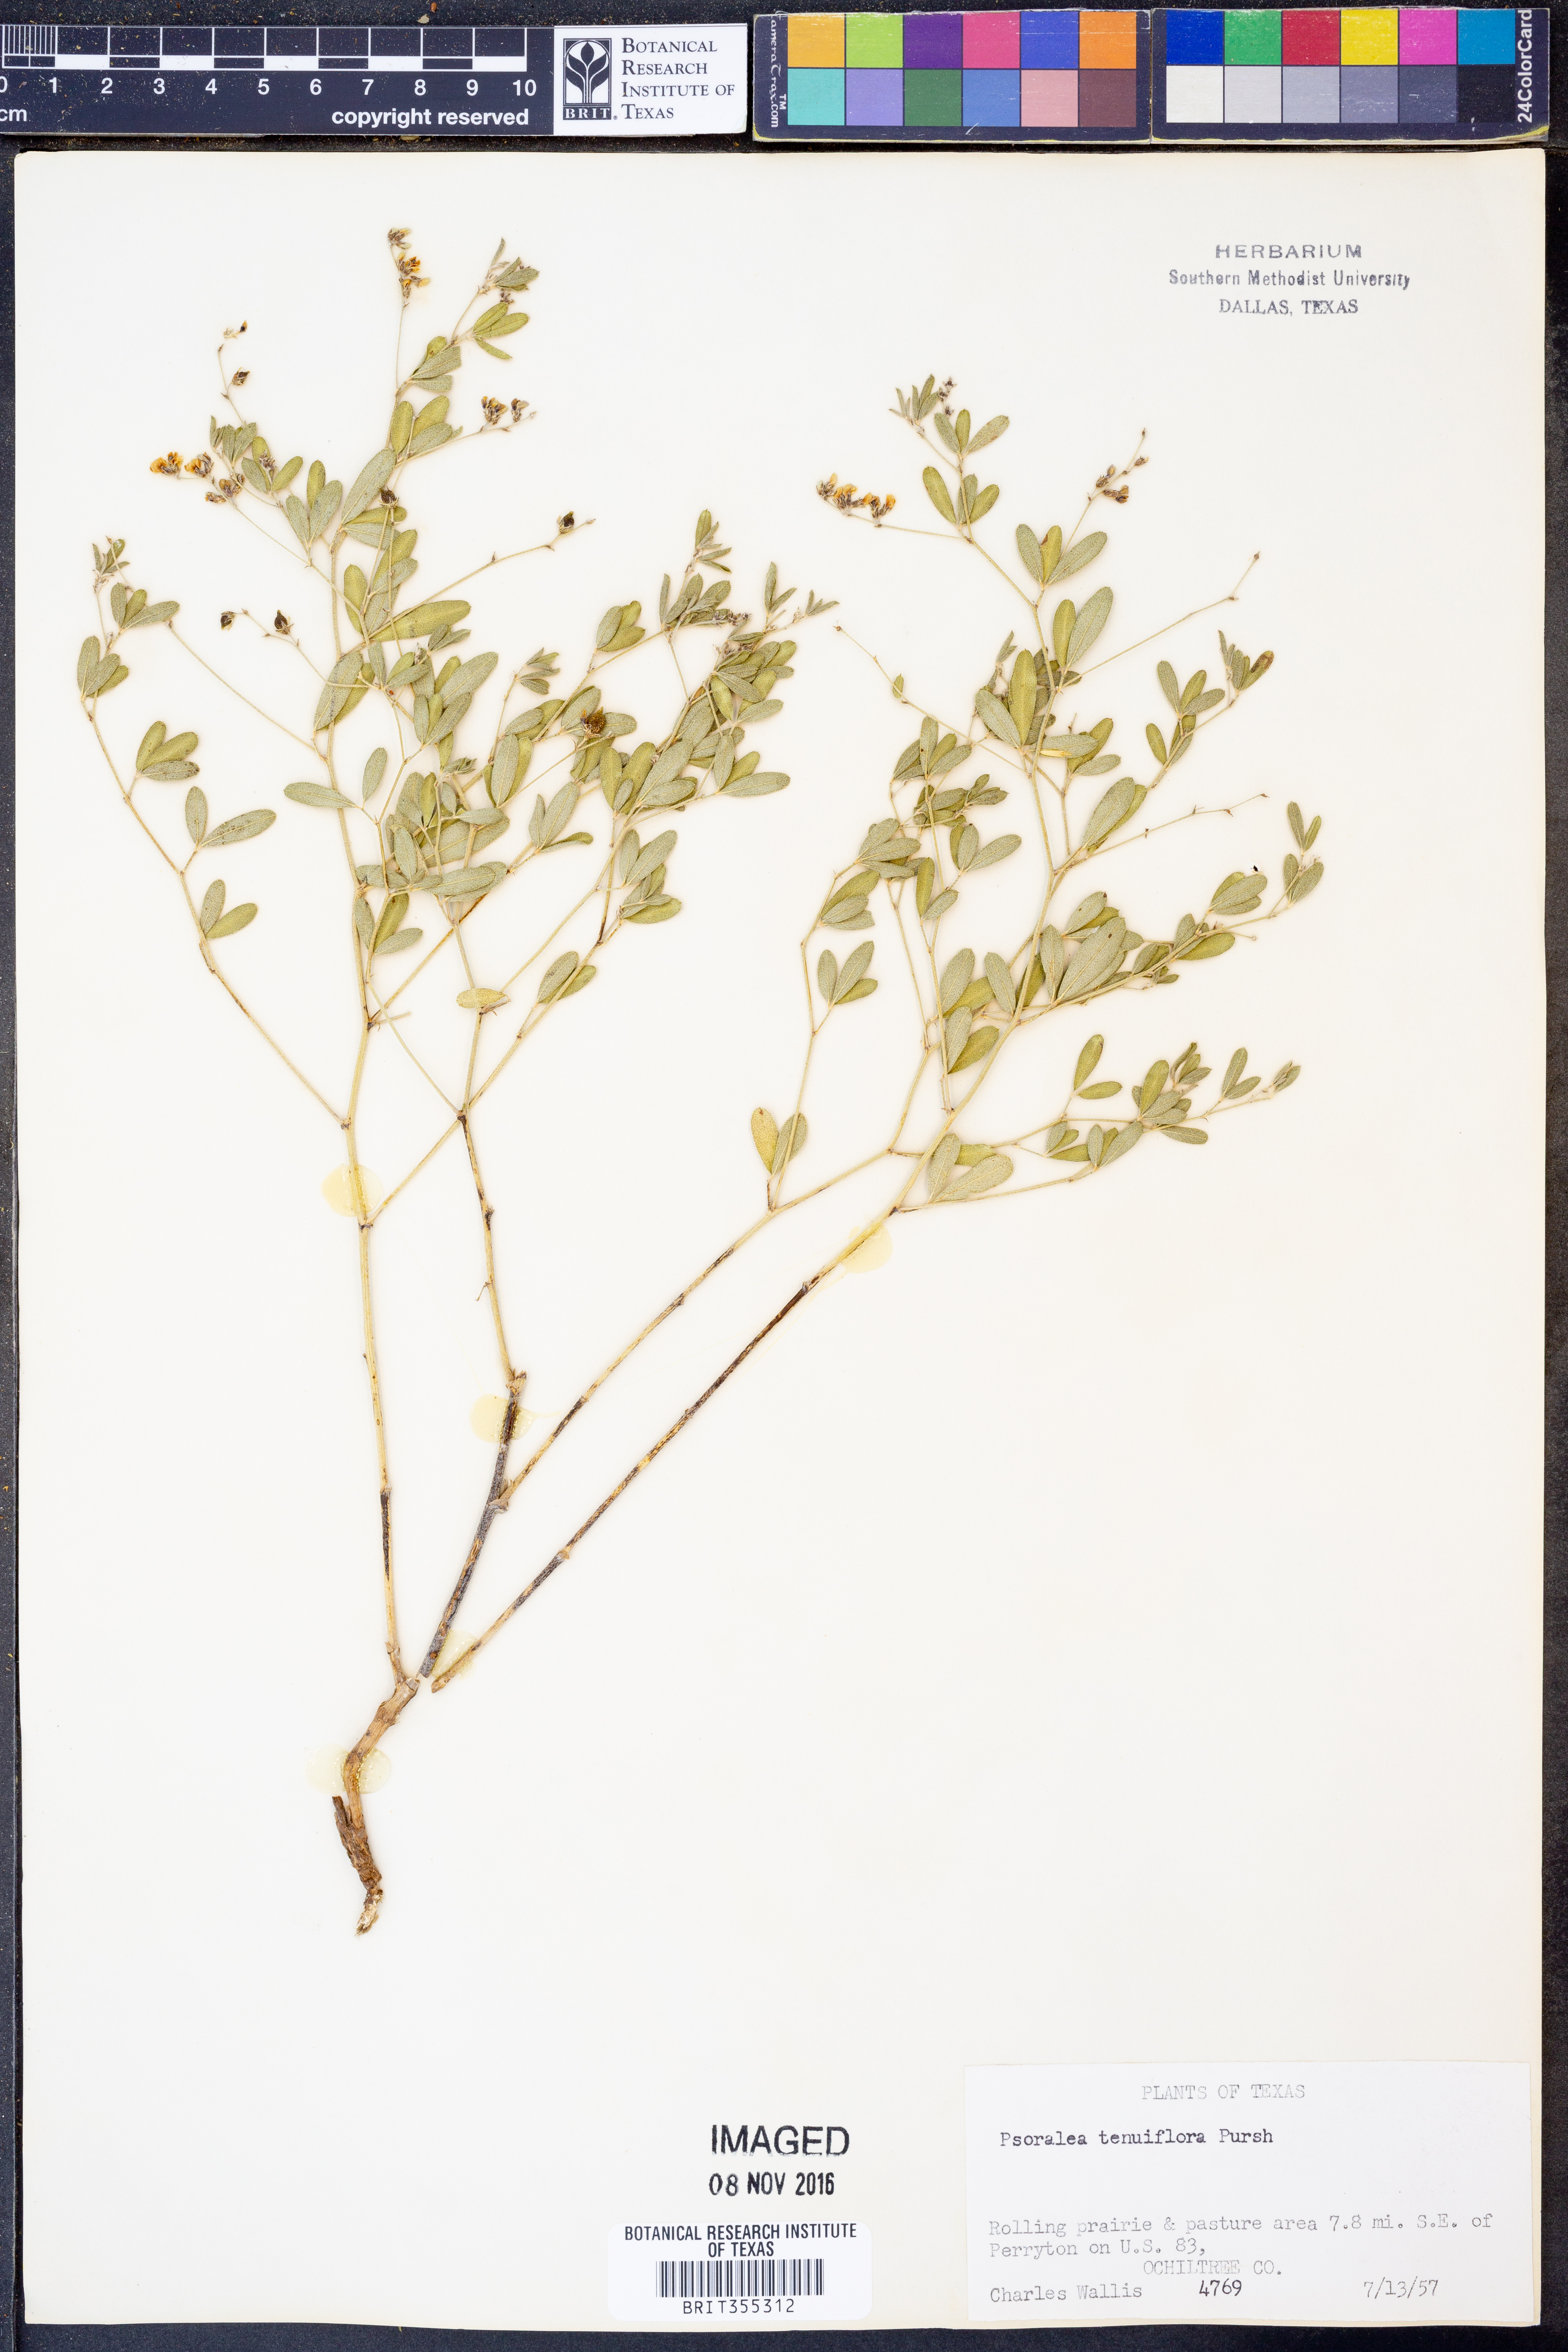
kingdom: Plantae
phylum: Tracheophyta
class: Magnoliopsida
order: Fabales
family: Fabaceae
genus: Pediomelum
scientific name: Pediomelum tenuiflorum
